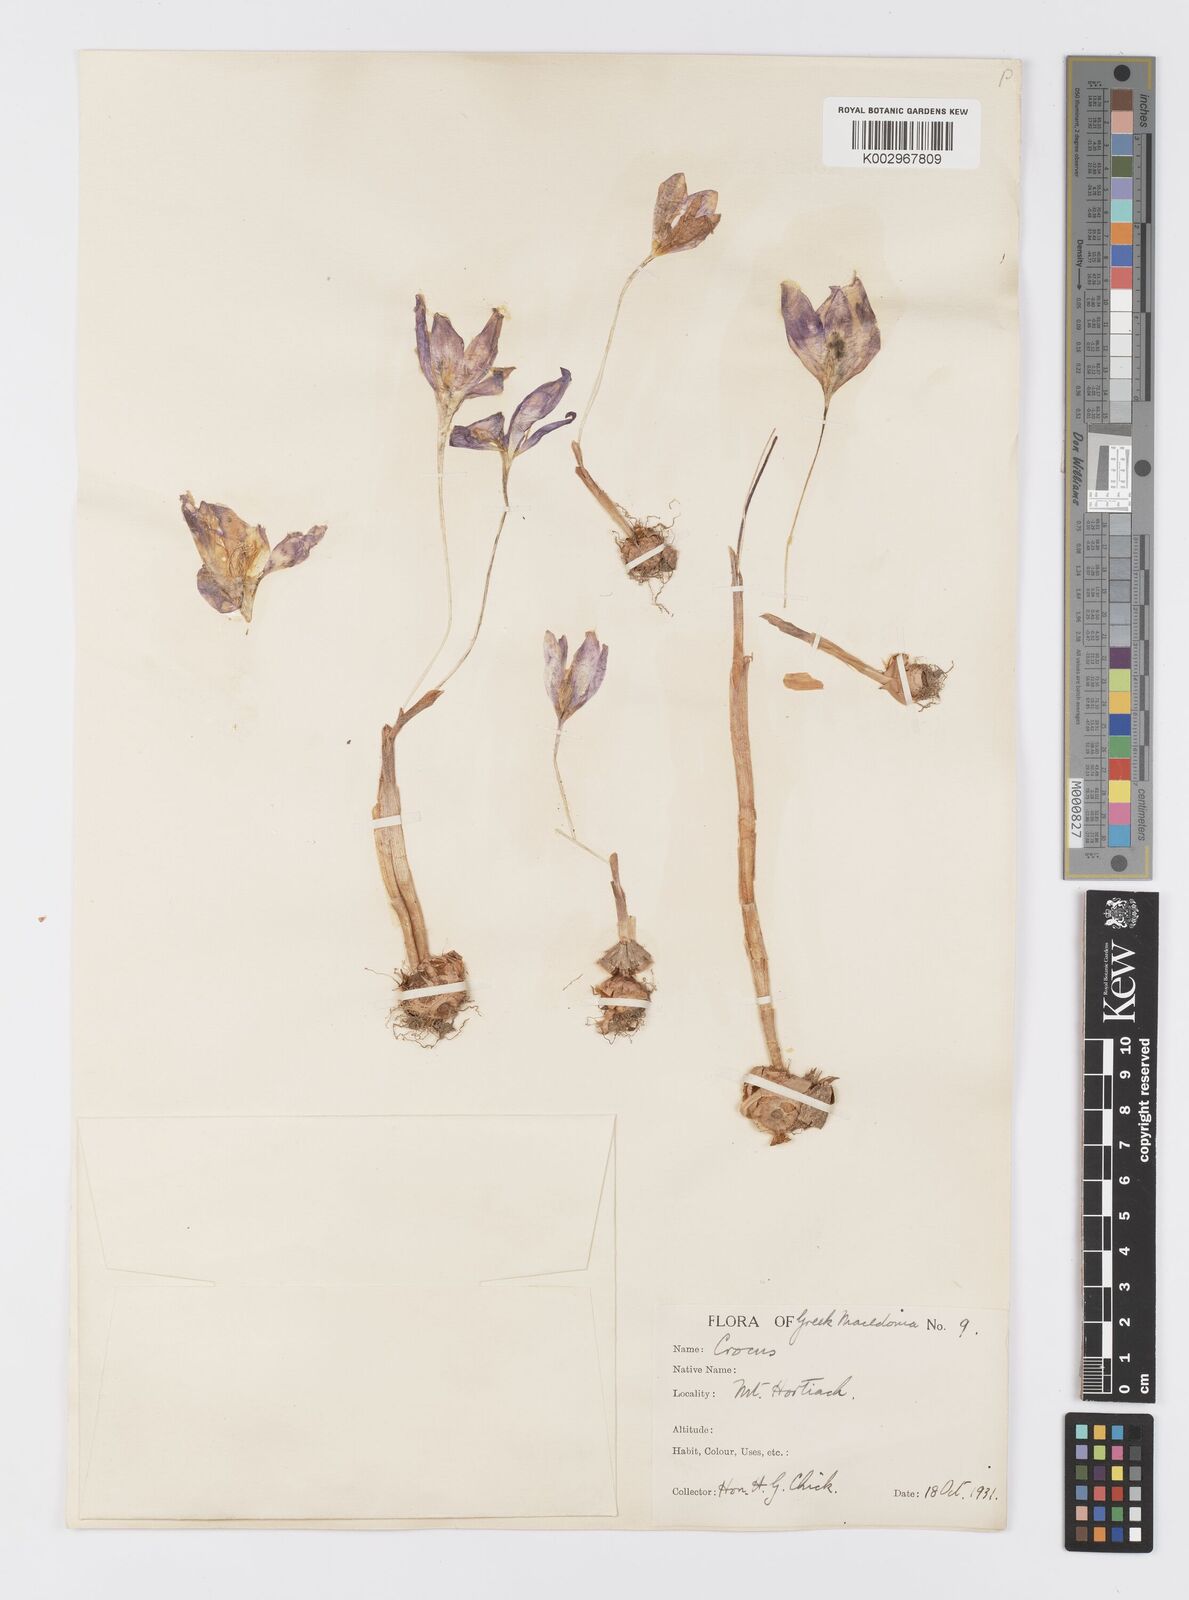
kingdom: Plantae
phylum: Tracheophyta
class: Liliopsida
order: Asparagales
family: Iridaceae
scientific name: Iridaceae
